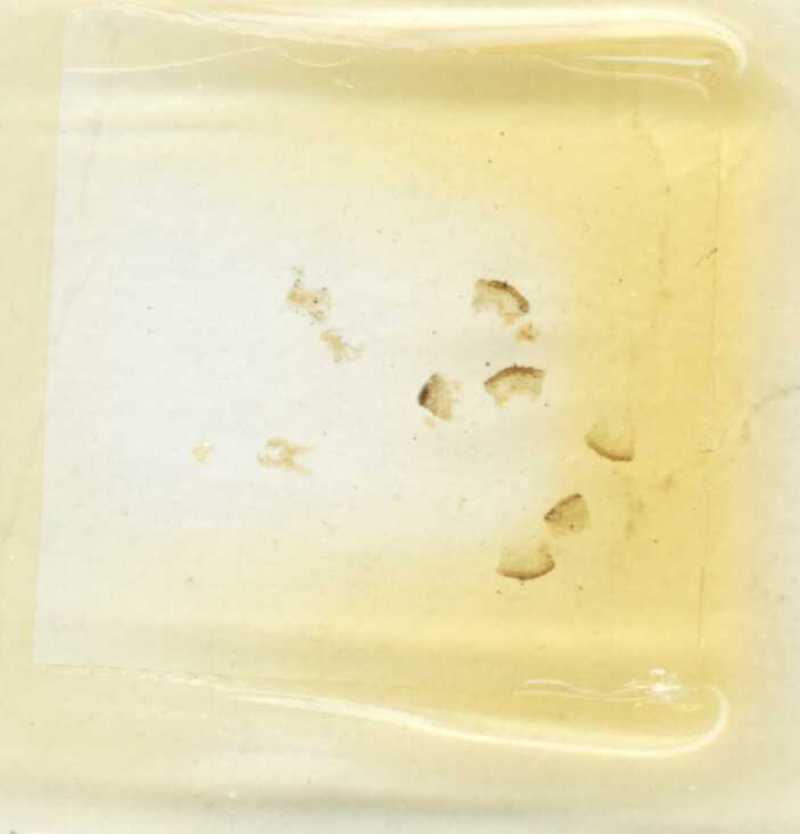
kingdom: Animalia
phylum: Arthropoda
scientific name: Arthropoda
